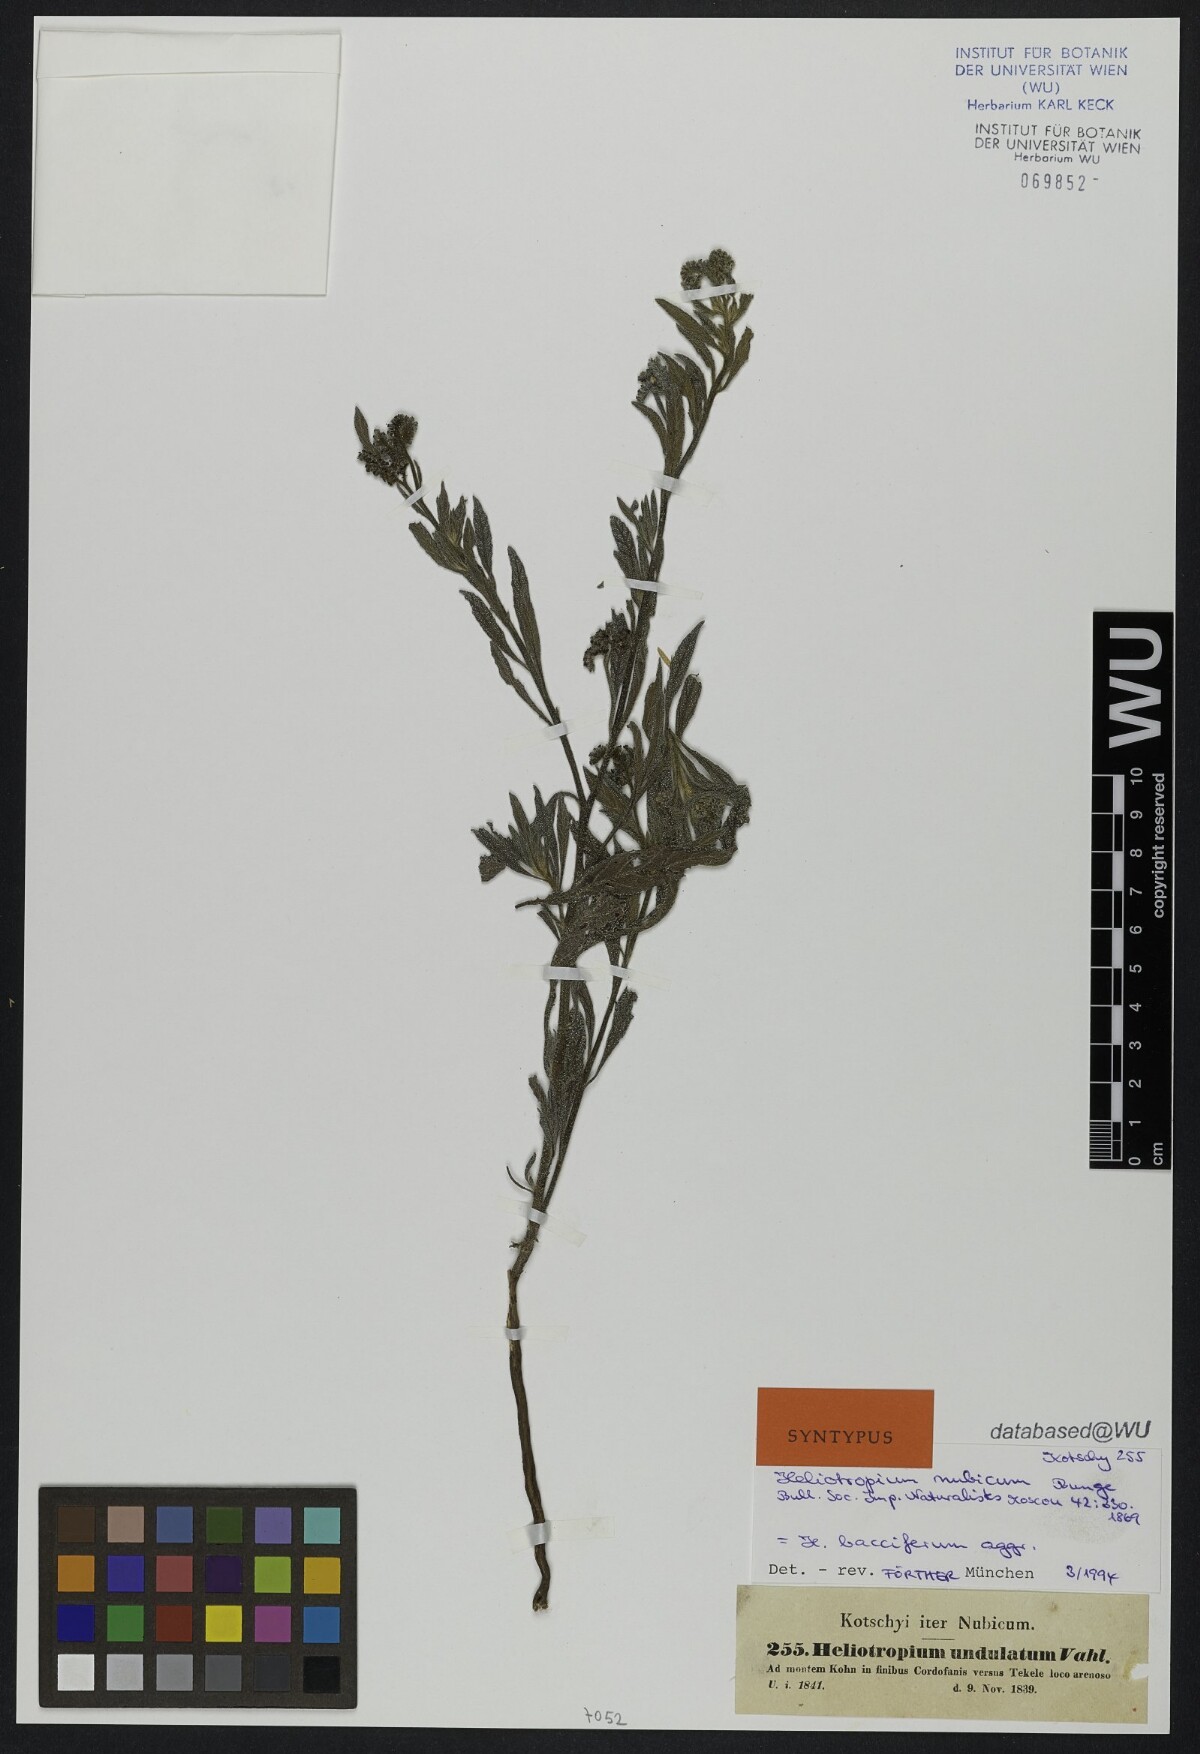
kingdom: Plantae
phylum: Tracheophyta
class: Magnoliopsida
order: Boraginales
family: Heliotropiaceae
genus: Heliotropium
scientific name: Heliotropium bacciferum
